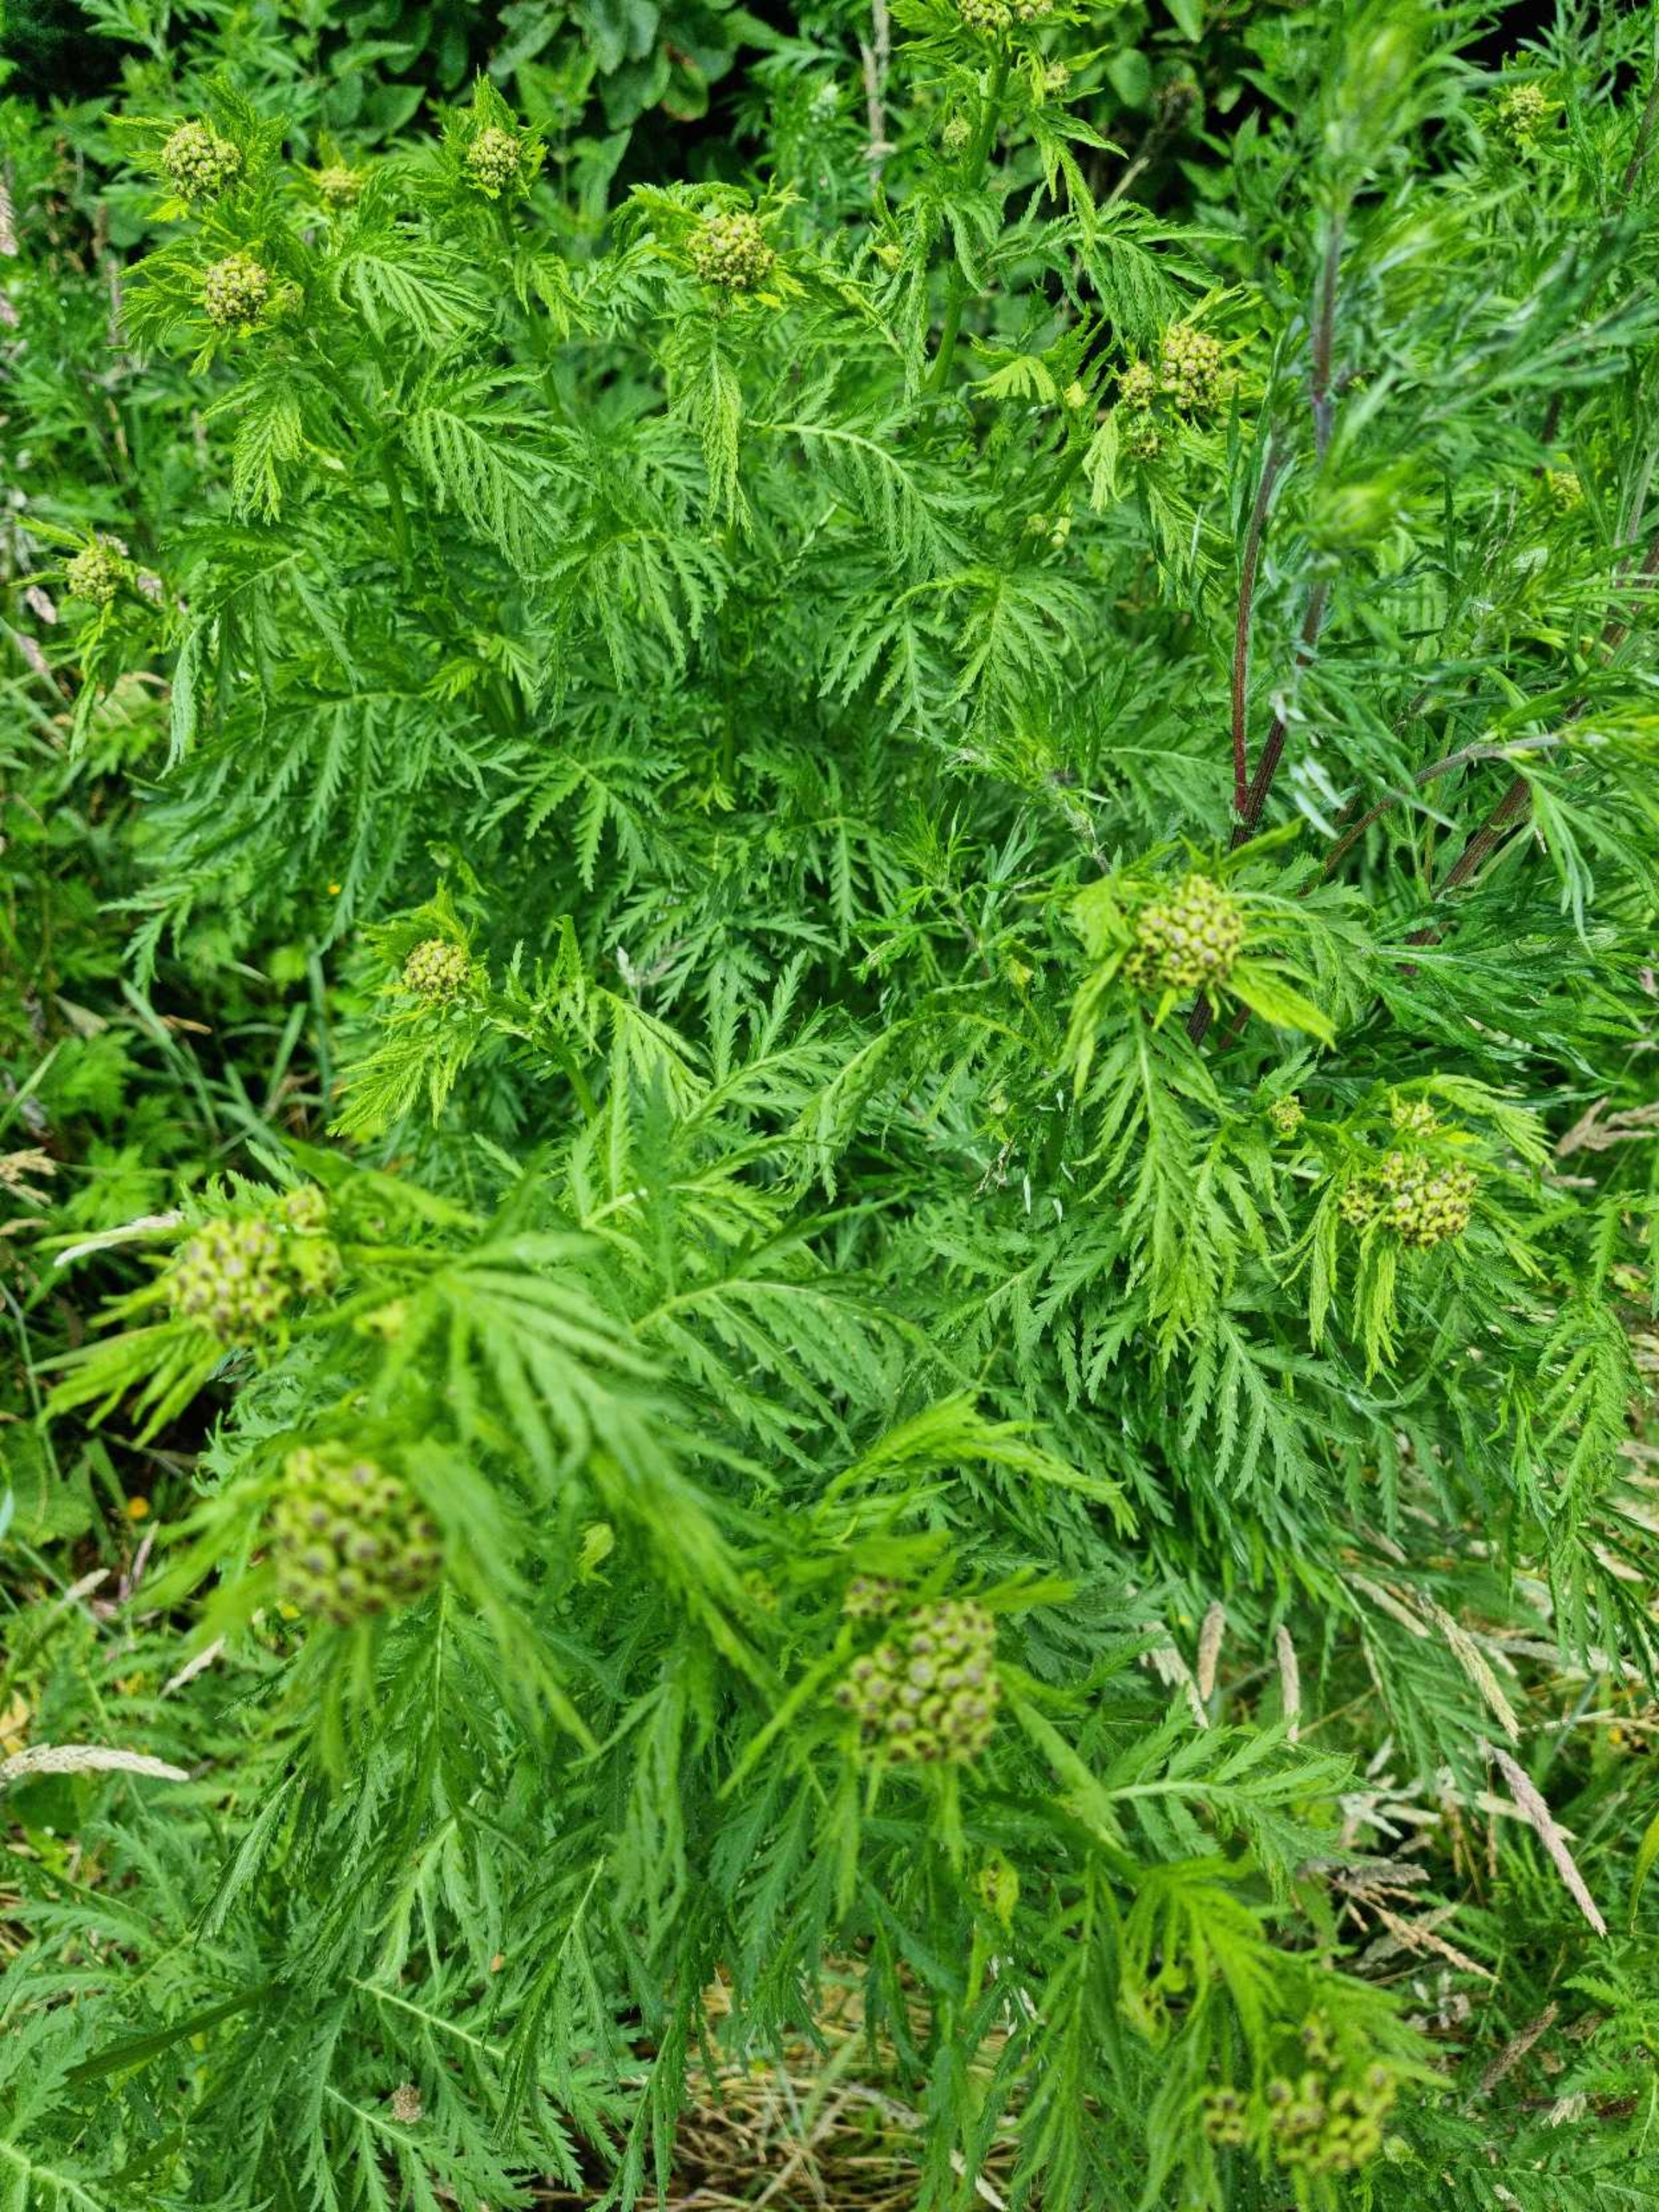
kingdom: Plantae
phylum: Tracheophyta
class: Magnoliopsida
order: Asterales
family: Asteraceae
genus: Tanacetum
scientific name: Tanacetum vulgare
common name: Rejnfan
